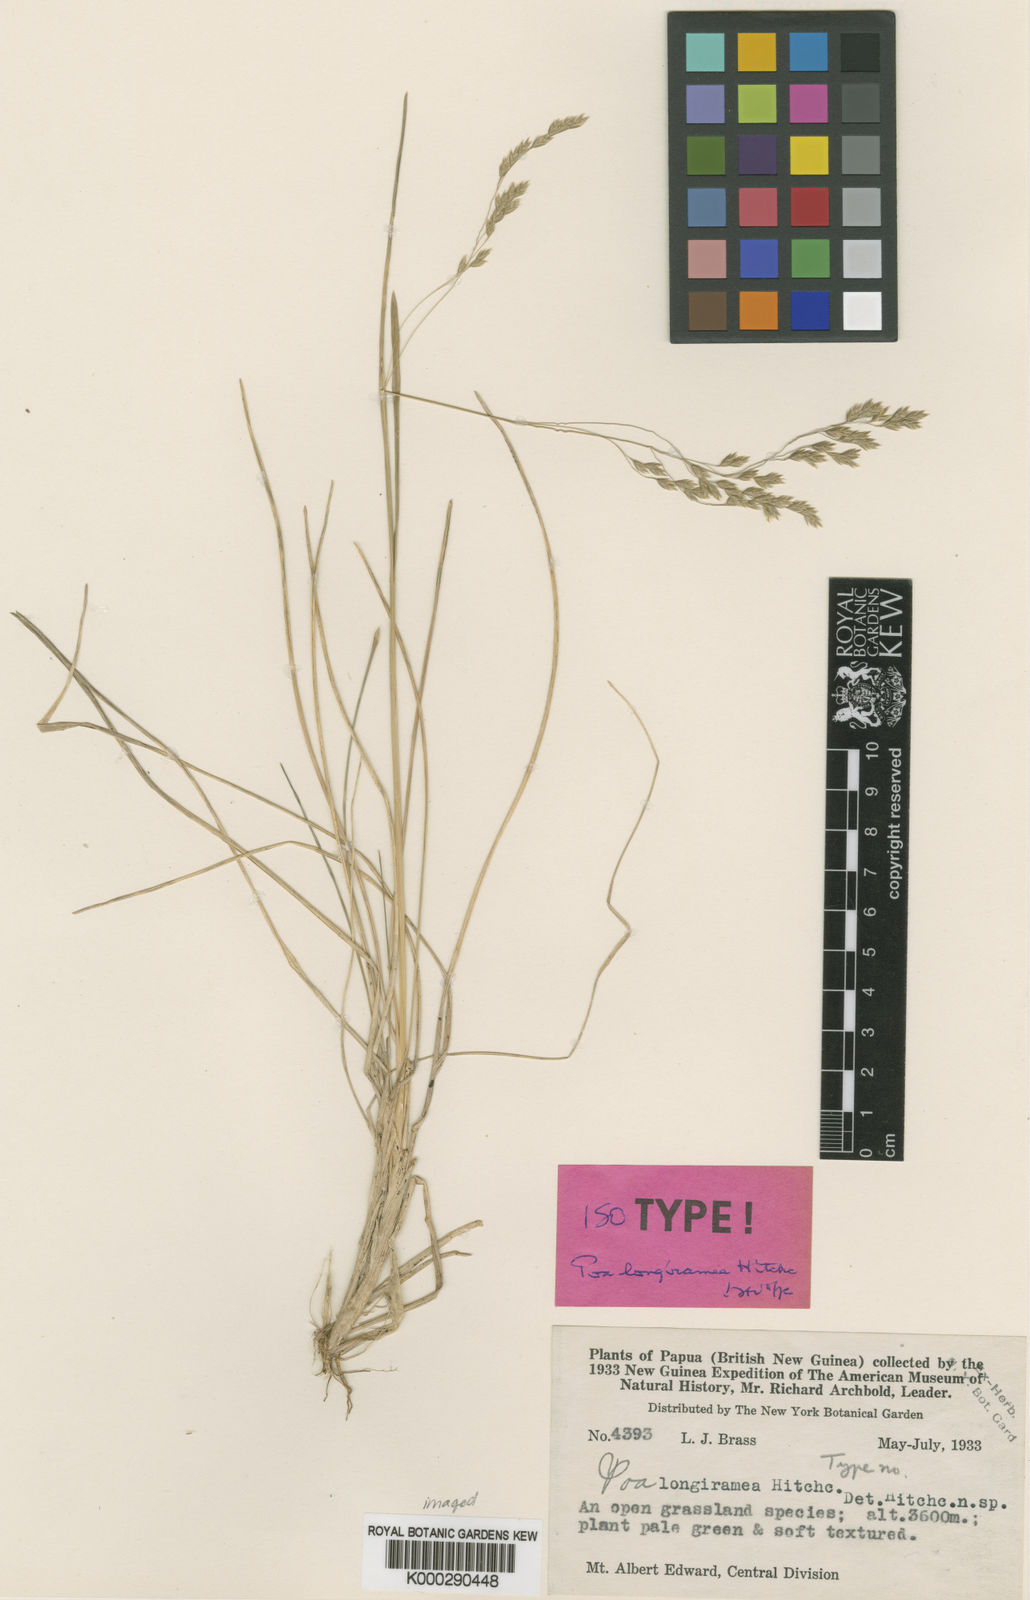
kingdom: Plantae
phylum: Tracheophyta
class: Liliopsida
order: Poales
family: Poaceae
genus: Poa
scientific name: Poa longiramea
